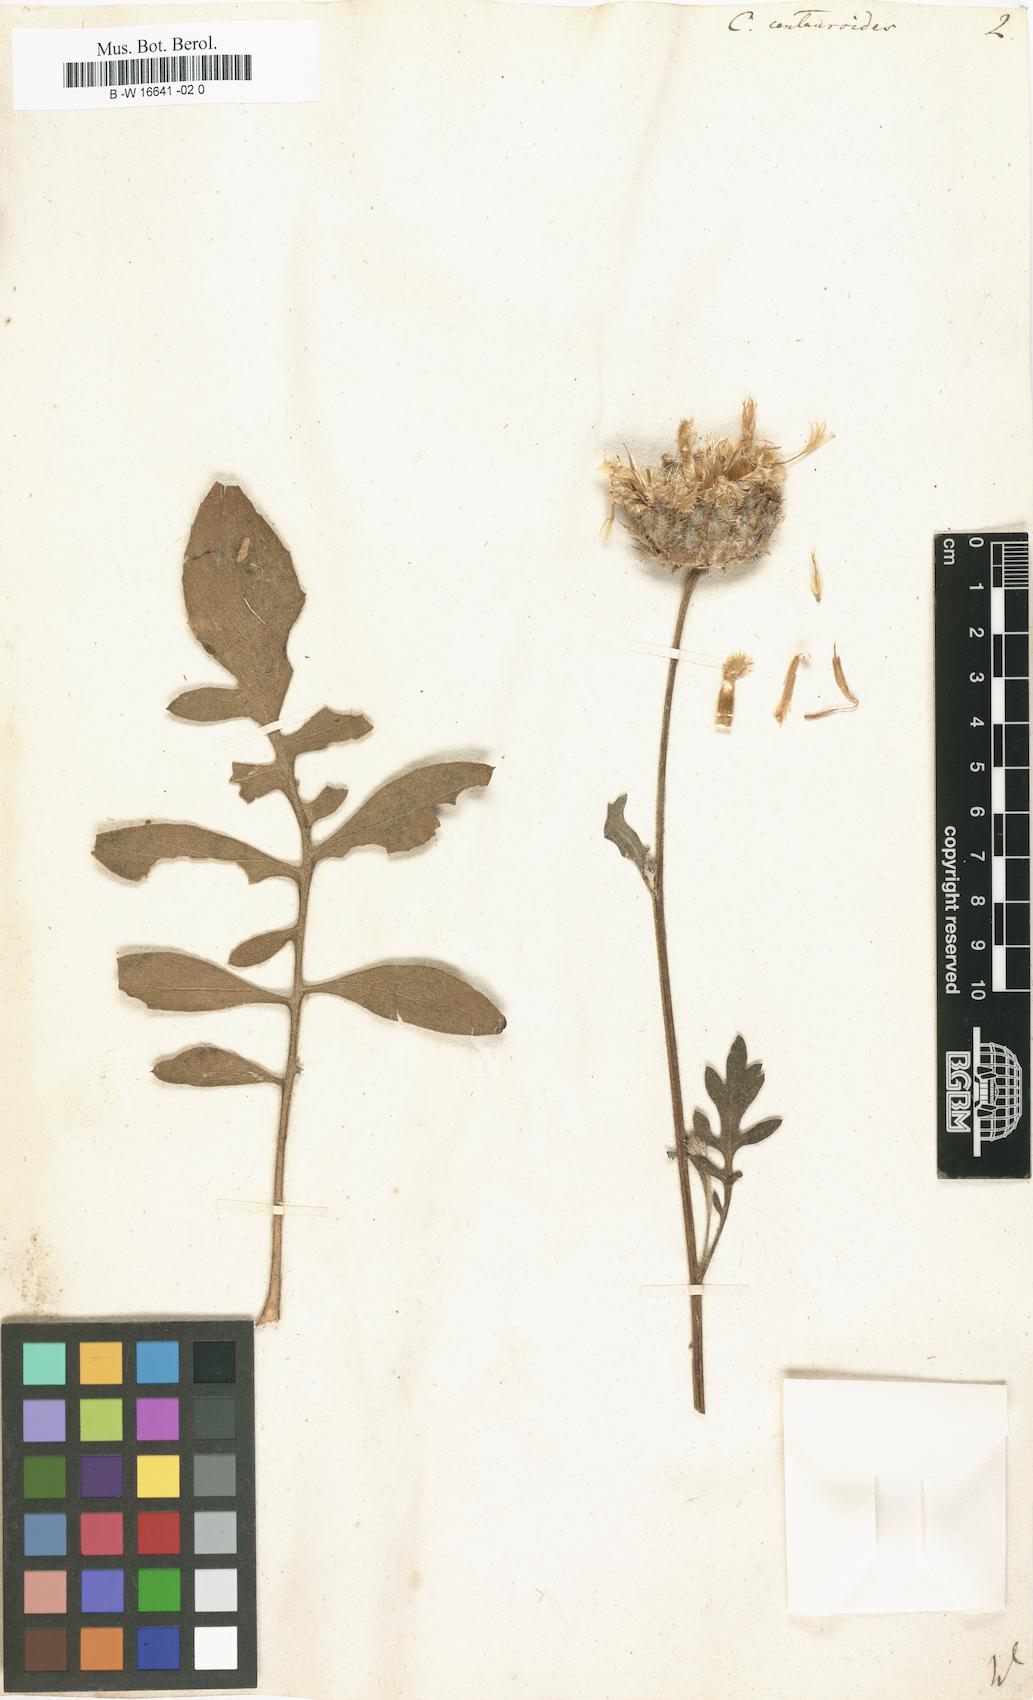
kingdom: Plantae
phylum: Tracheophyta
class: Magnoliopsida
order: Asterales
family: Asteraceae
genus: Centaurea
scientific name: Centaurea centauroides
